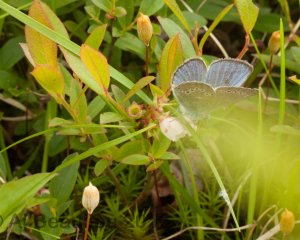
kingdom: Animalia
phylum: Arthropoda
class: Insecta
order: Lepidoptera
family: Lycaenidae
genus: Glaucopsyche
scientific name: Glaucopsyche lygdamus
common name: Silvery Blue
